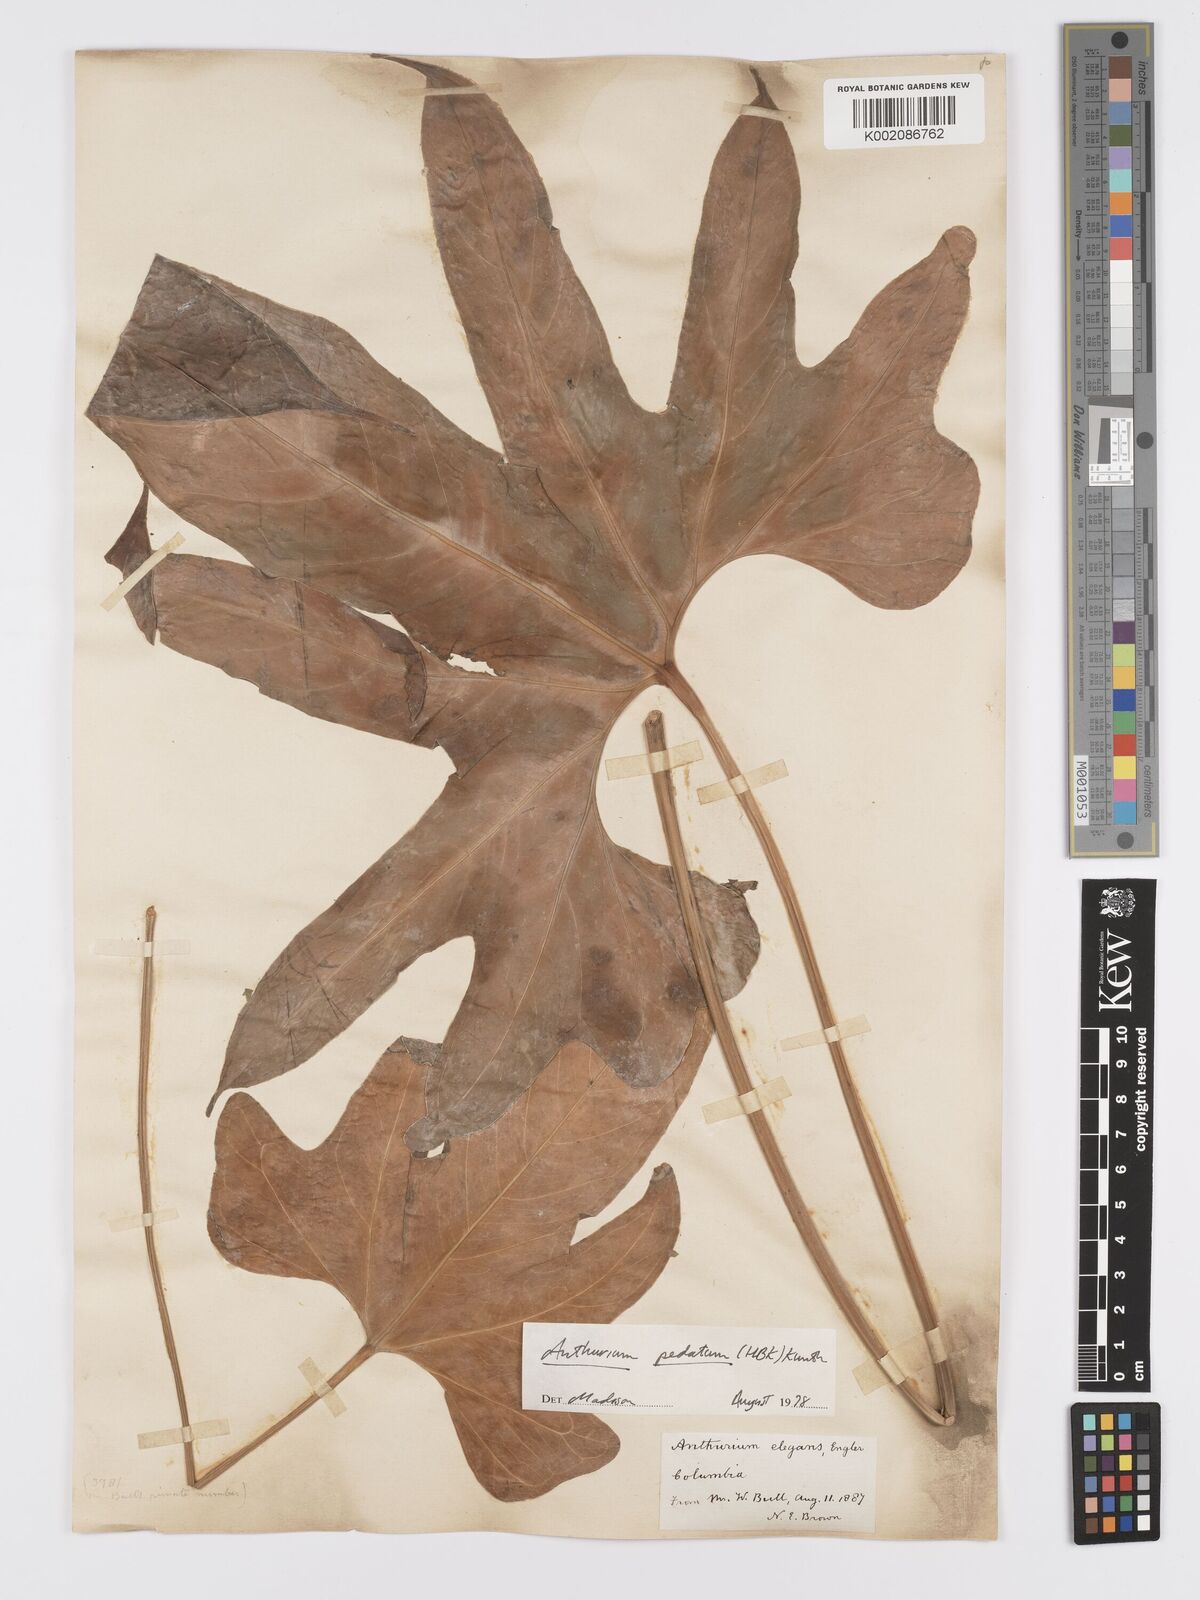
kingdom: Plantae
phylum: Tracheophyta
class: Liliopsida
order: Alismatales
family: Araceae
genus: Anthurium
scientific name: Anthurium pedatum
